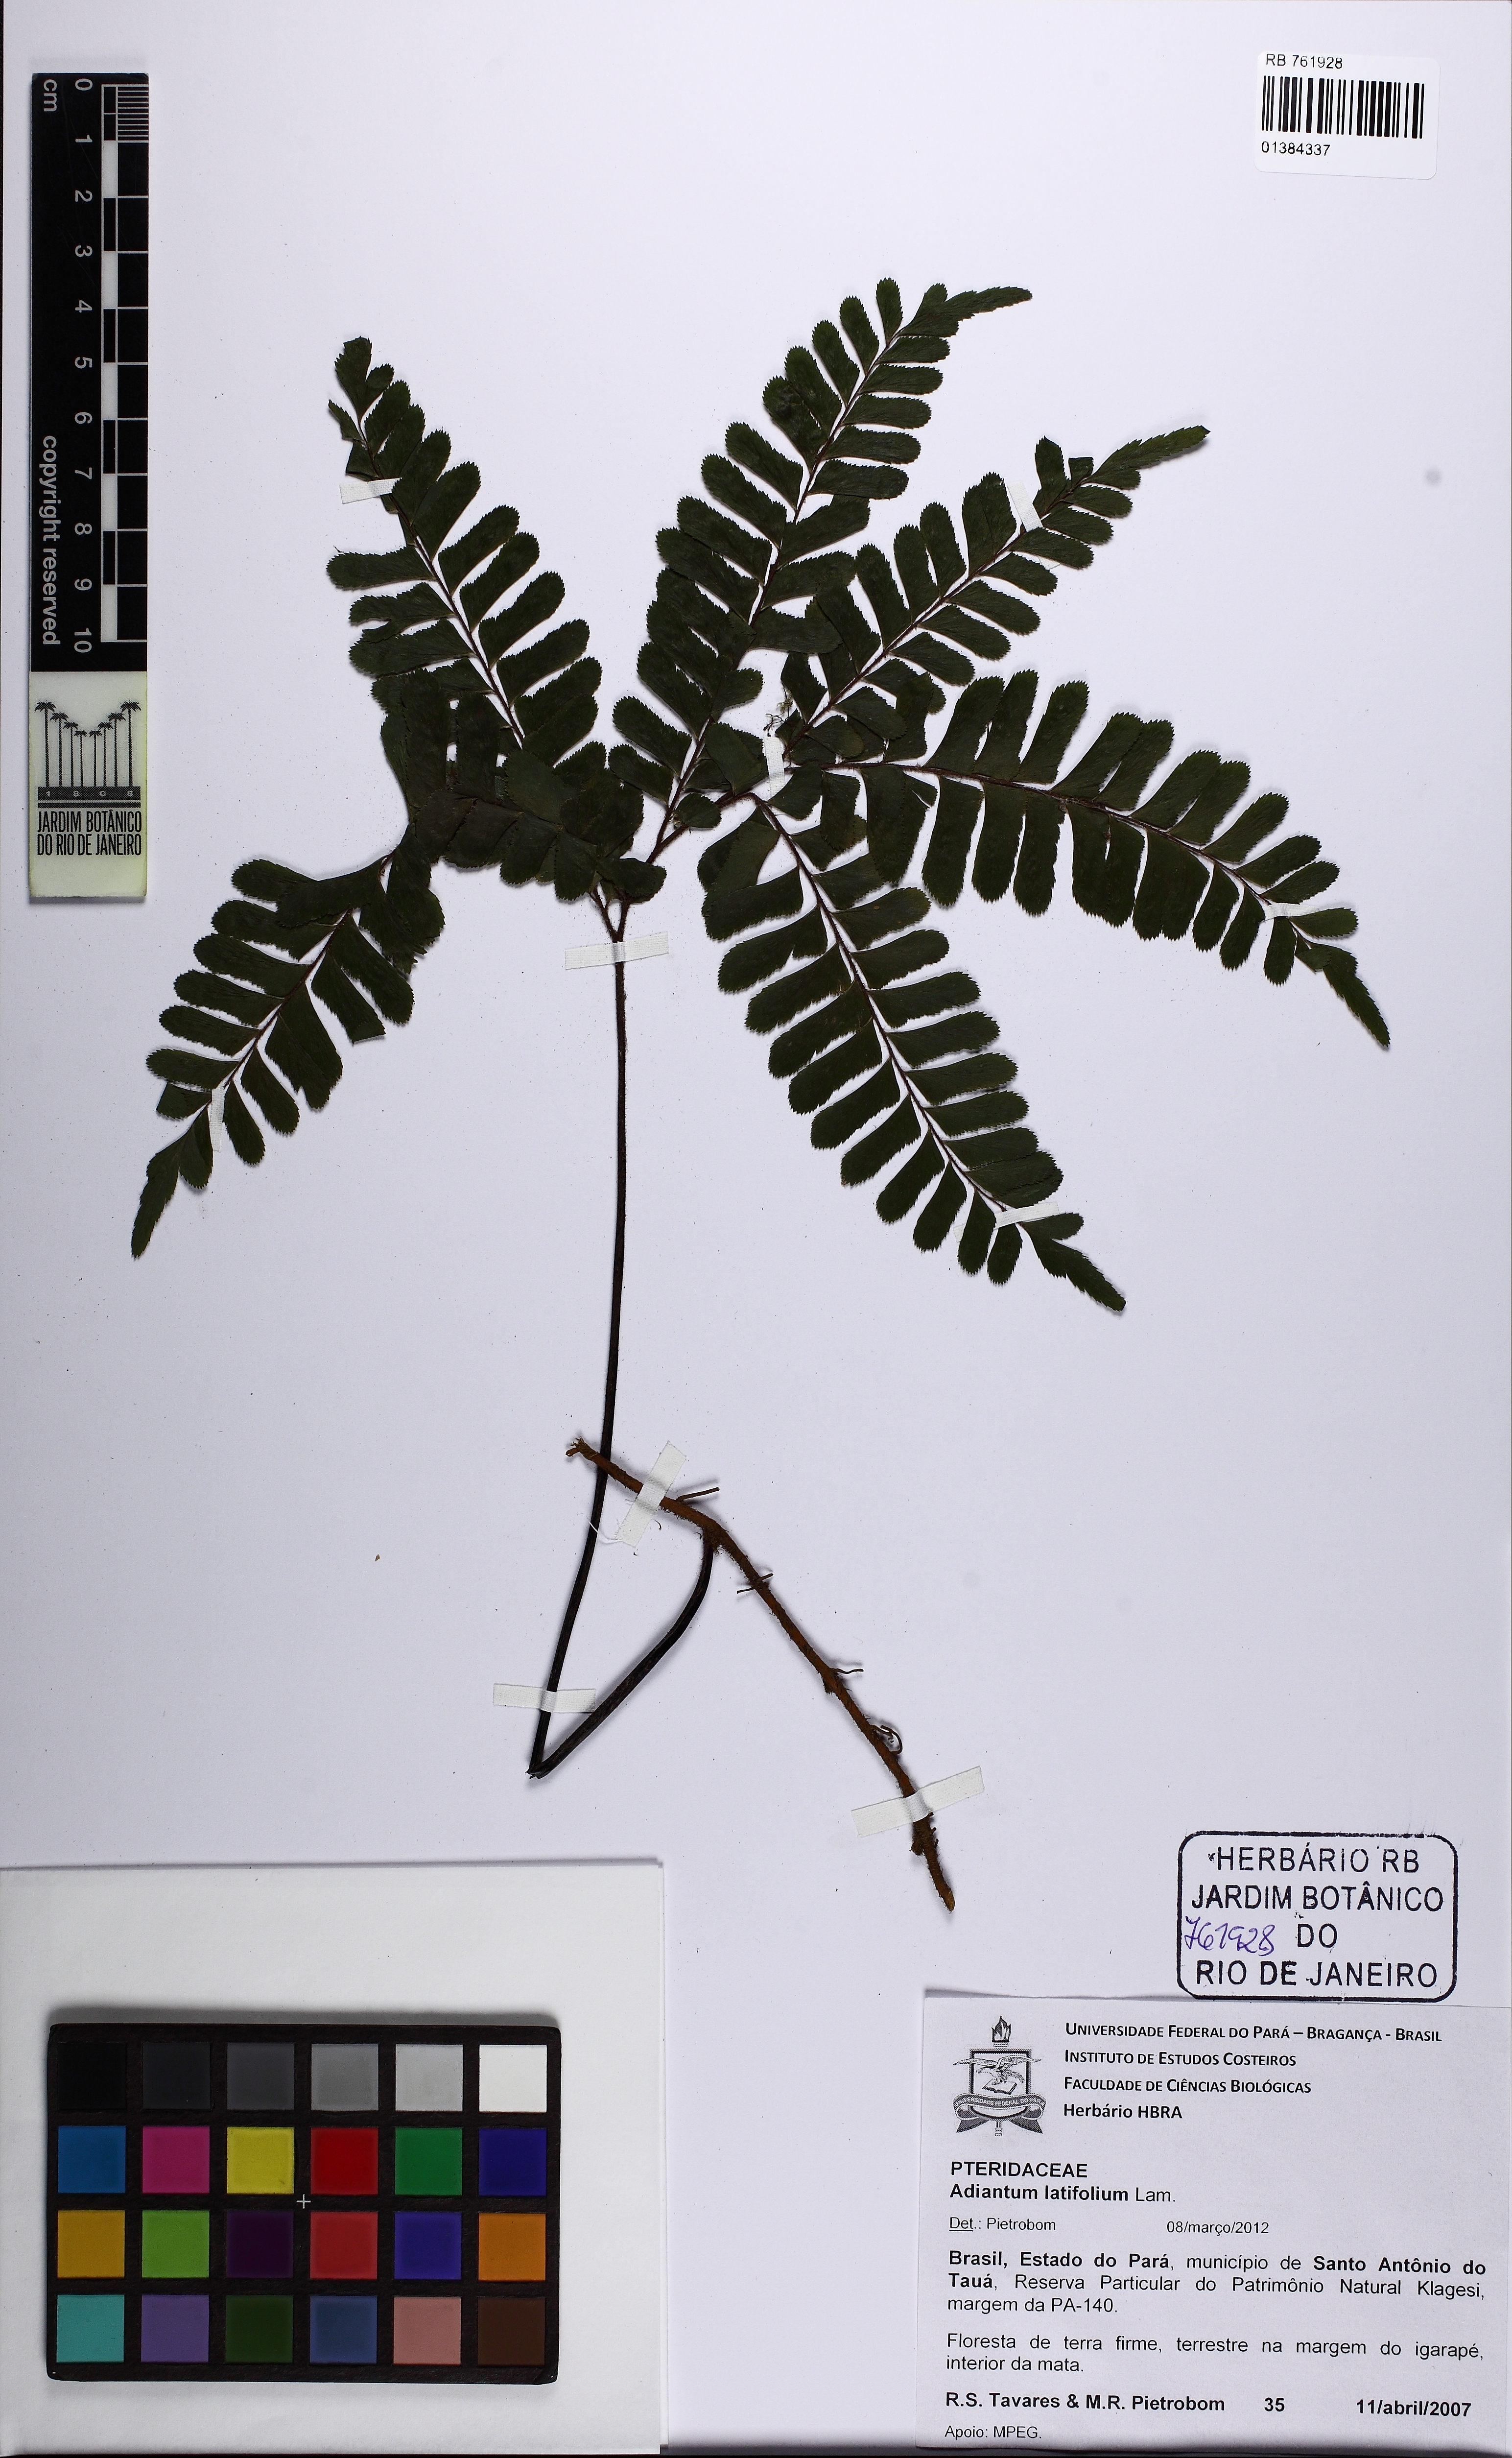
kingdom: Plantae
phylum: Tracheophyta
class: Polypodiopsida
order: Polypodiales
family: Pteridaceae
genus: Adiantum
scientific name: Adiantum latifolium
